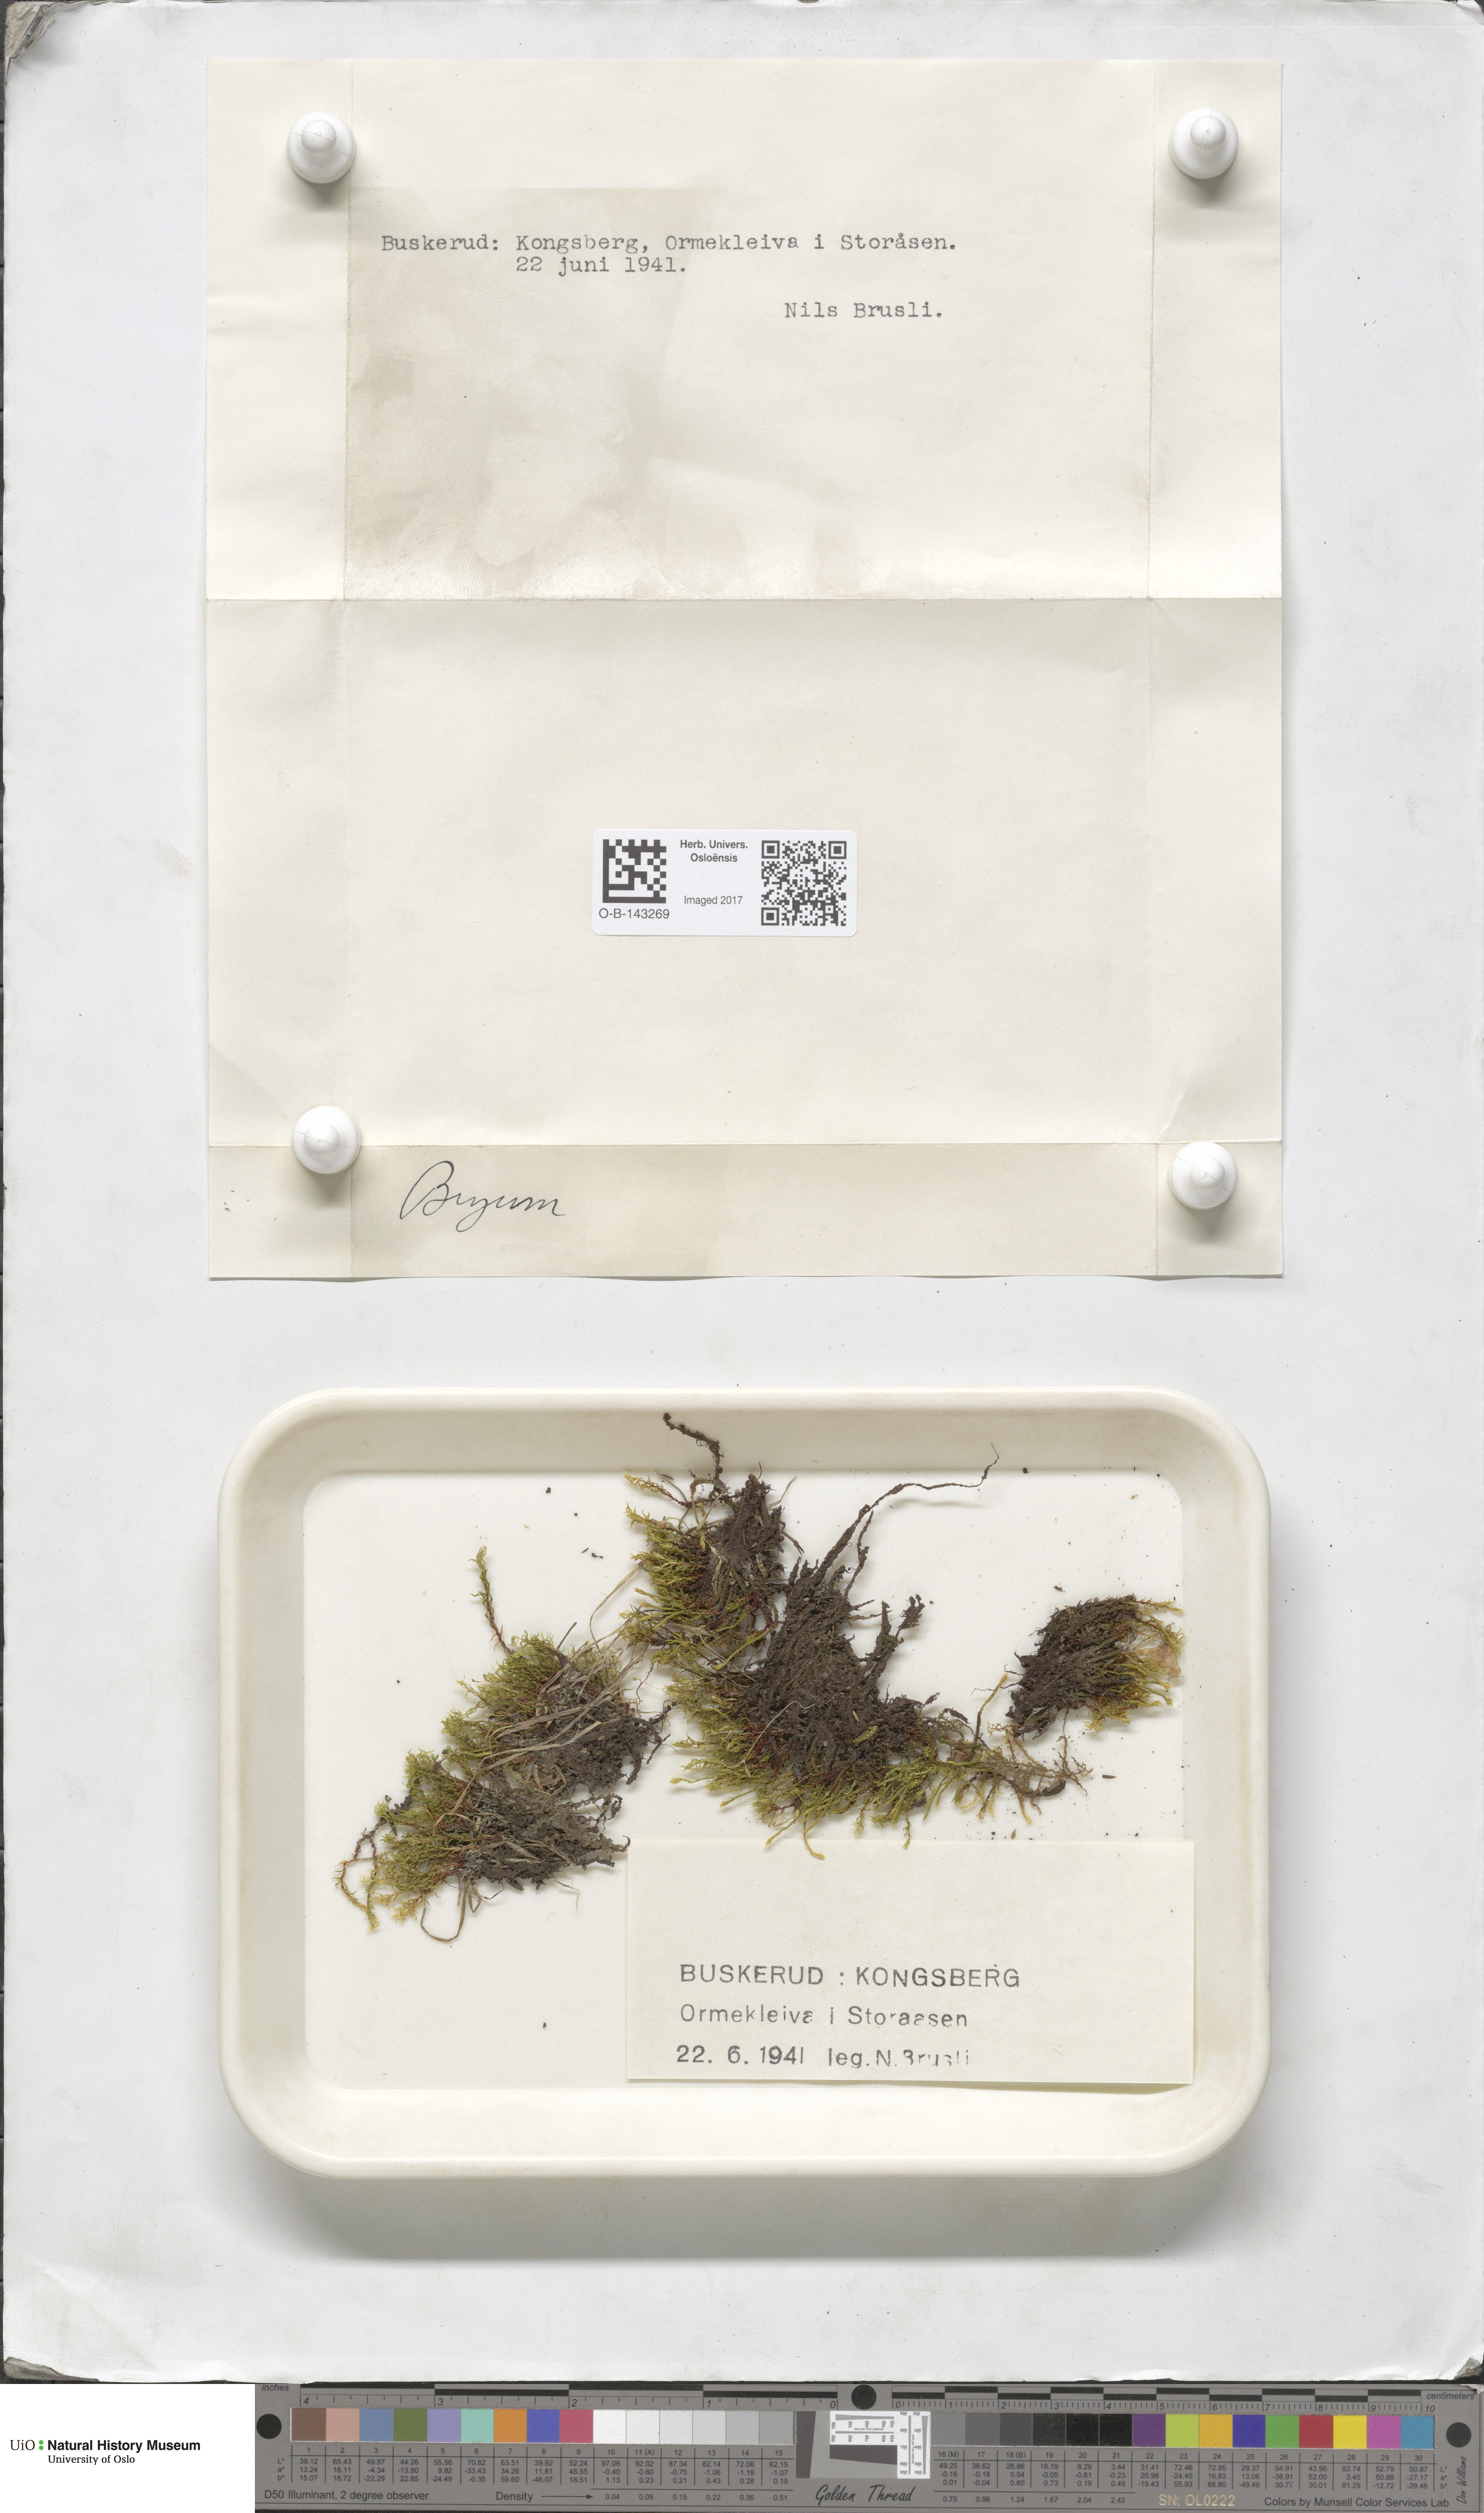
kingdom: Plantae
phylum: Bryophyta
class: Bryopsida
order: Bryales
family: Bryaceae
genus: Bryum
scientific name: Bryum
